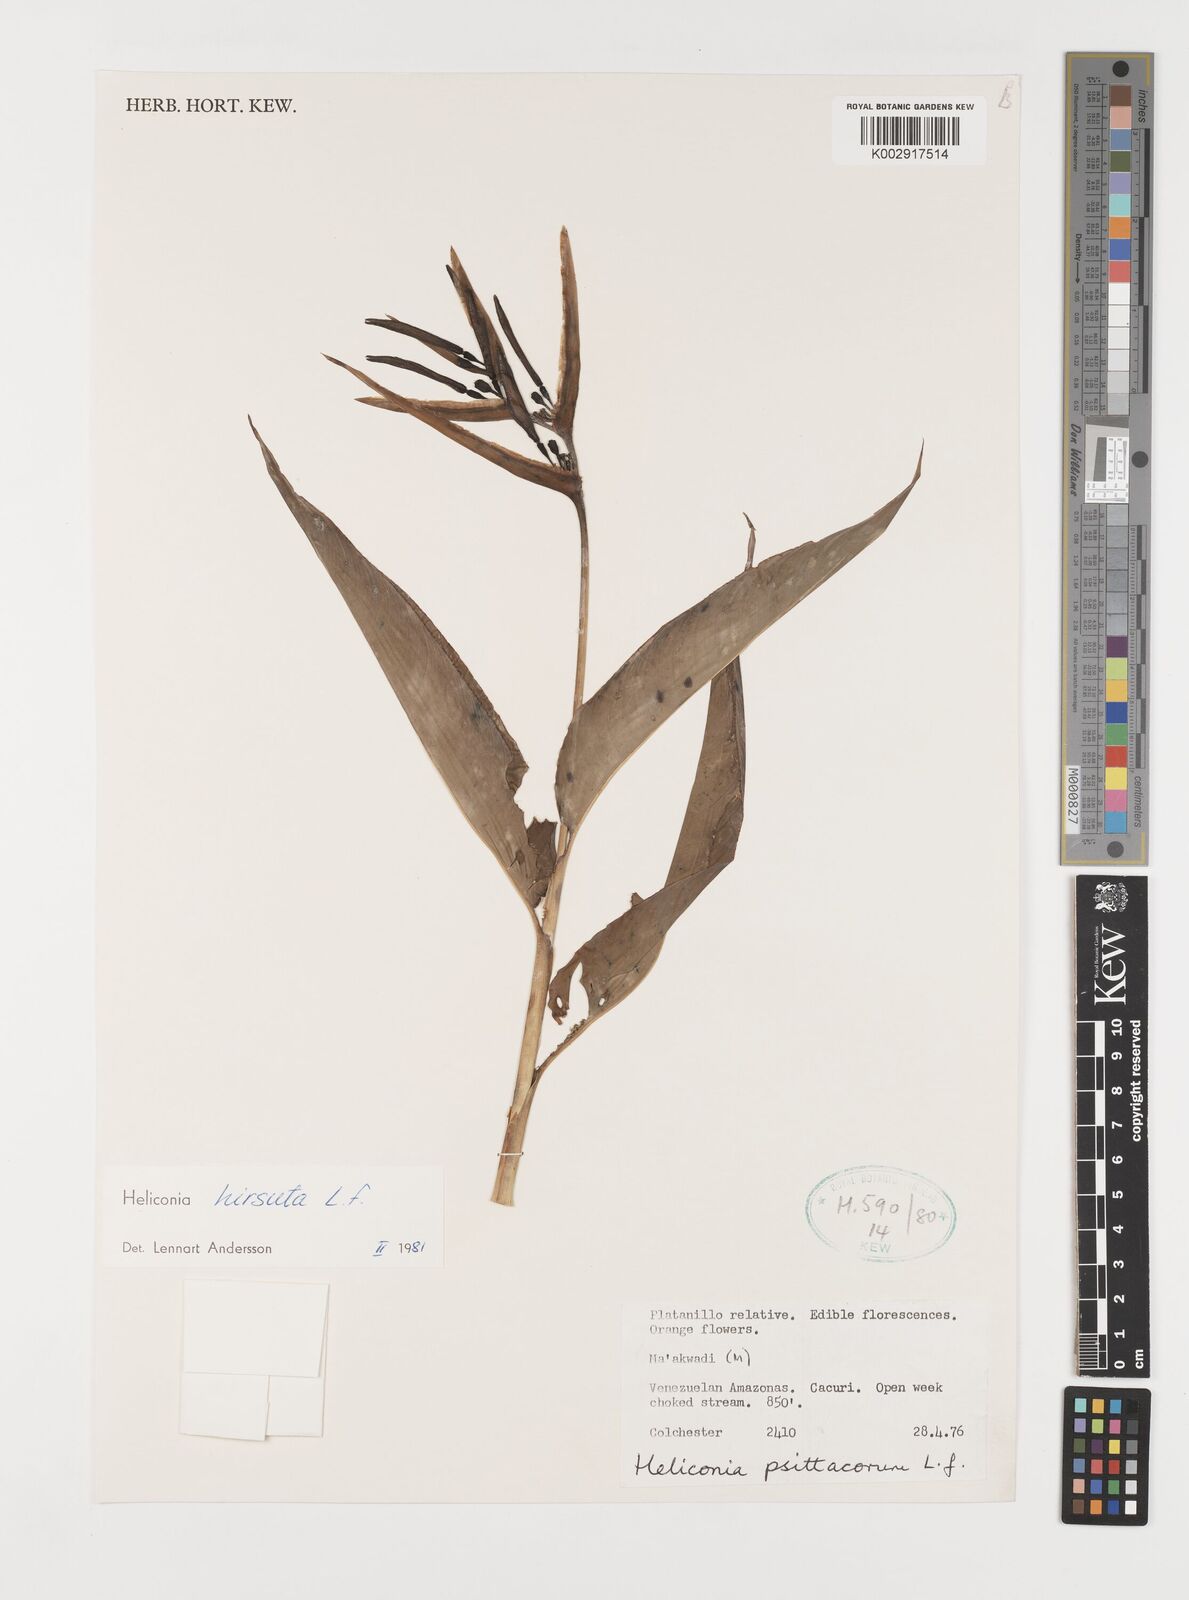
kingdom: Plantae
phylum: Tracheophyta
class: Liliopsida
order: Zingiberales
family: Heliconiaceae
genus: Heliconia
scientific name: Heliconia hirsuta
